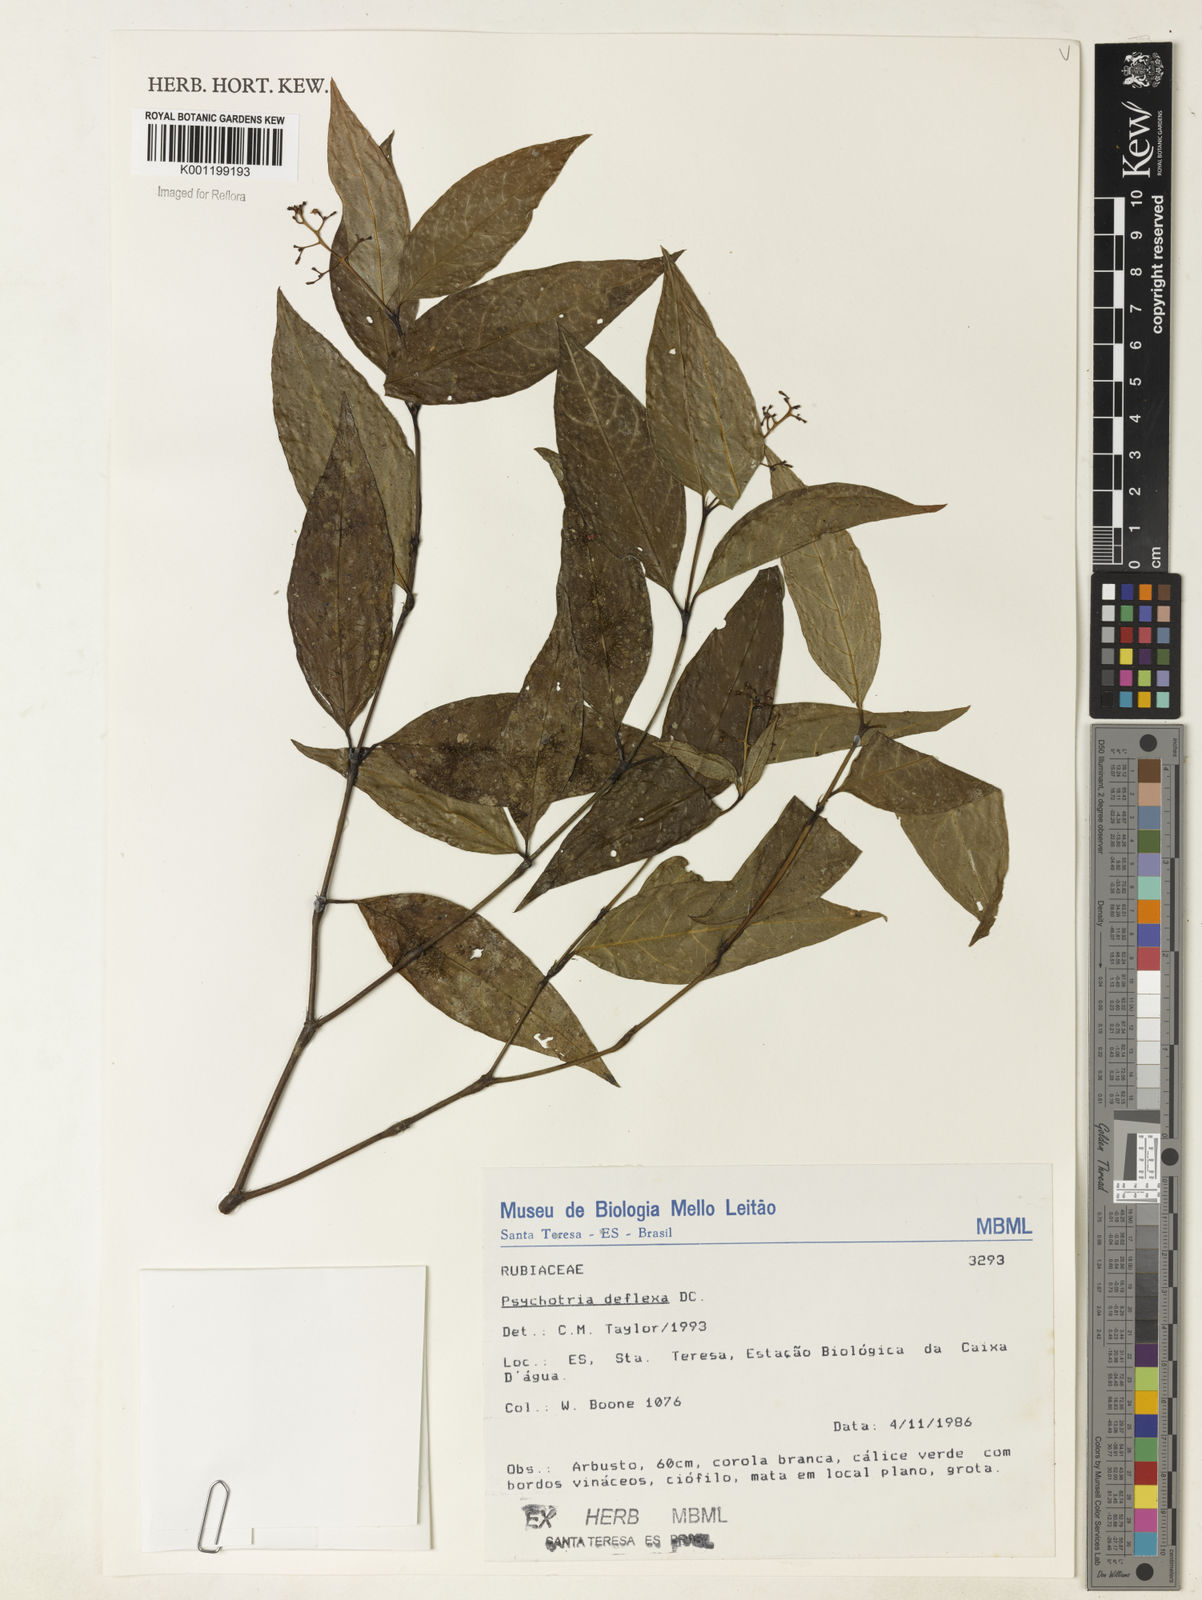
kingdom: Plantae
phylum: Tracheophyta
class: Magnoliopsida
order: Gentianales
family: Rubiaceae
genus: Palicourea
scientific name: Palicourea deflexa
